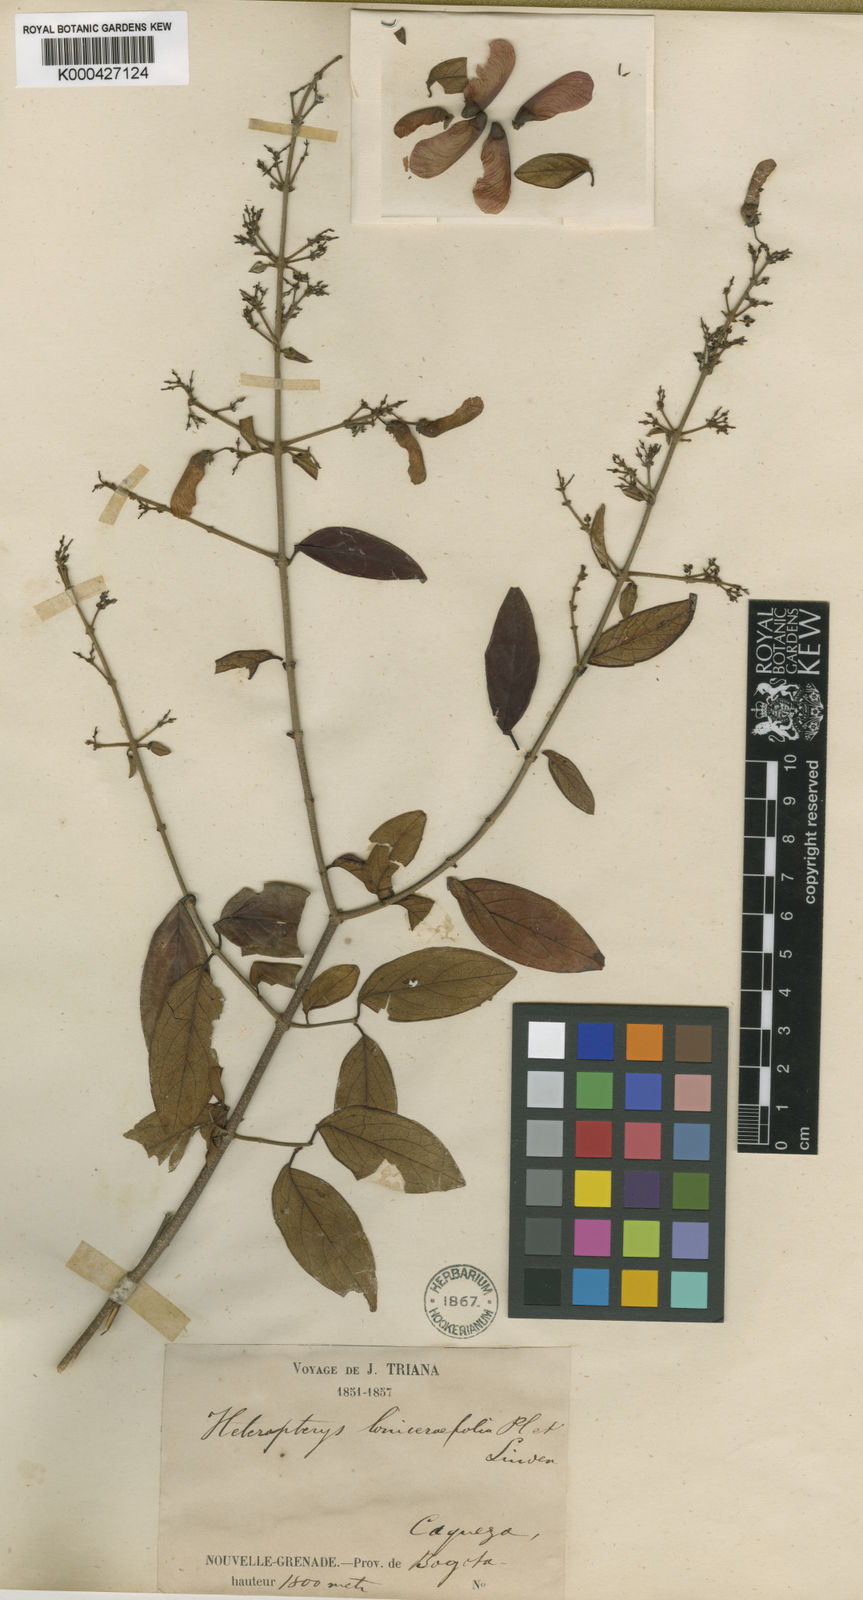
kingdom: Plantae
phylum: Tracheophyta
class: Magnoliopsida
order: Malpighiales
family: Malpighiaceae
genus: Heteropterys
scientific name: Heteropterys
